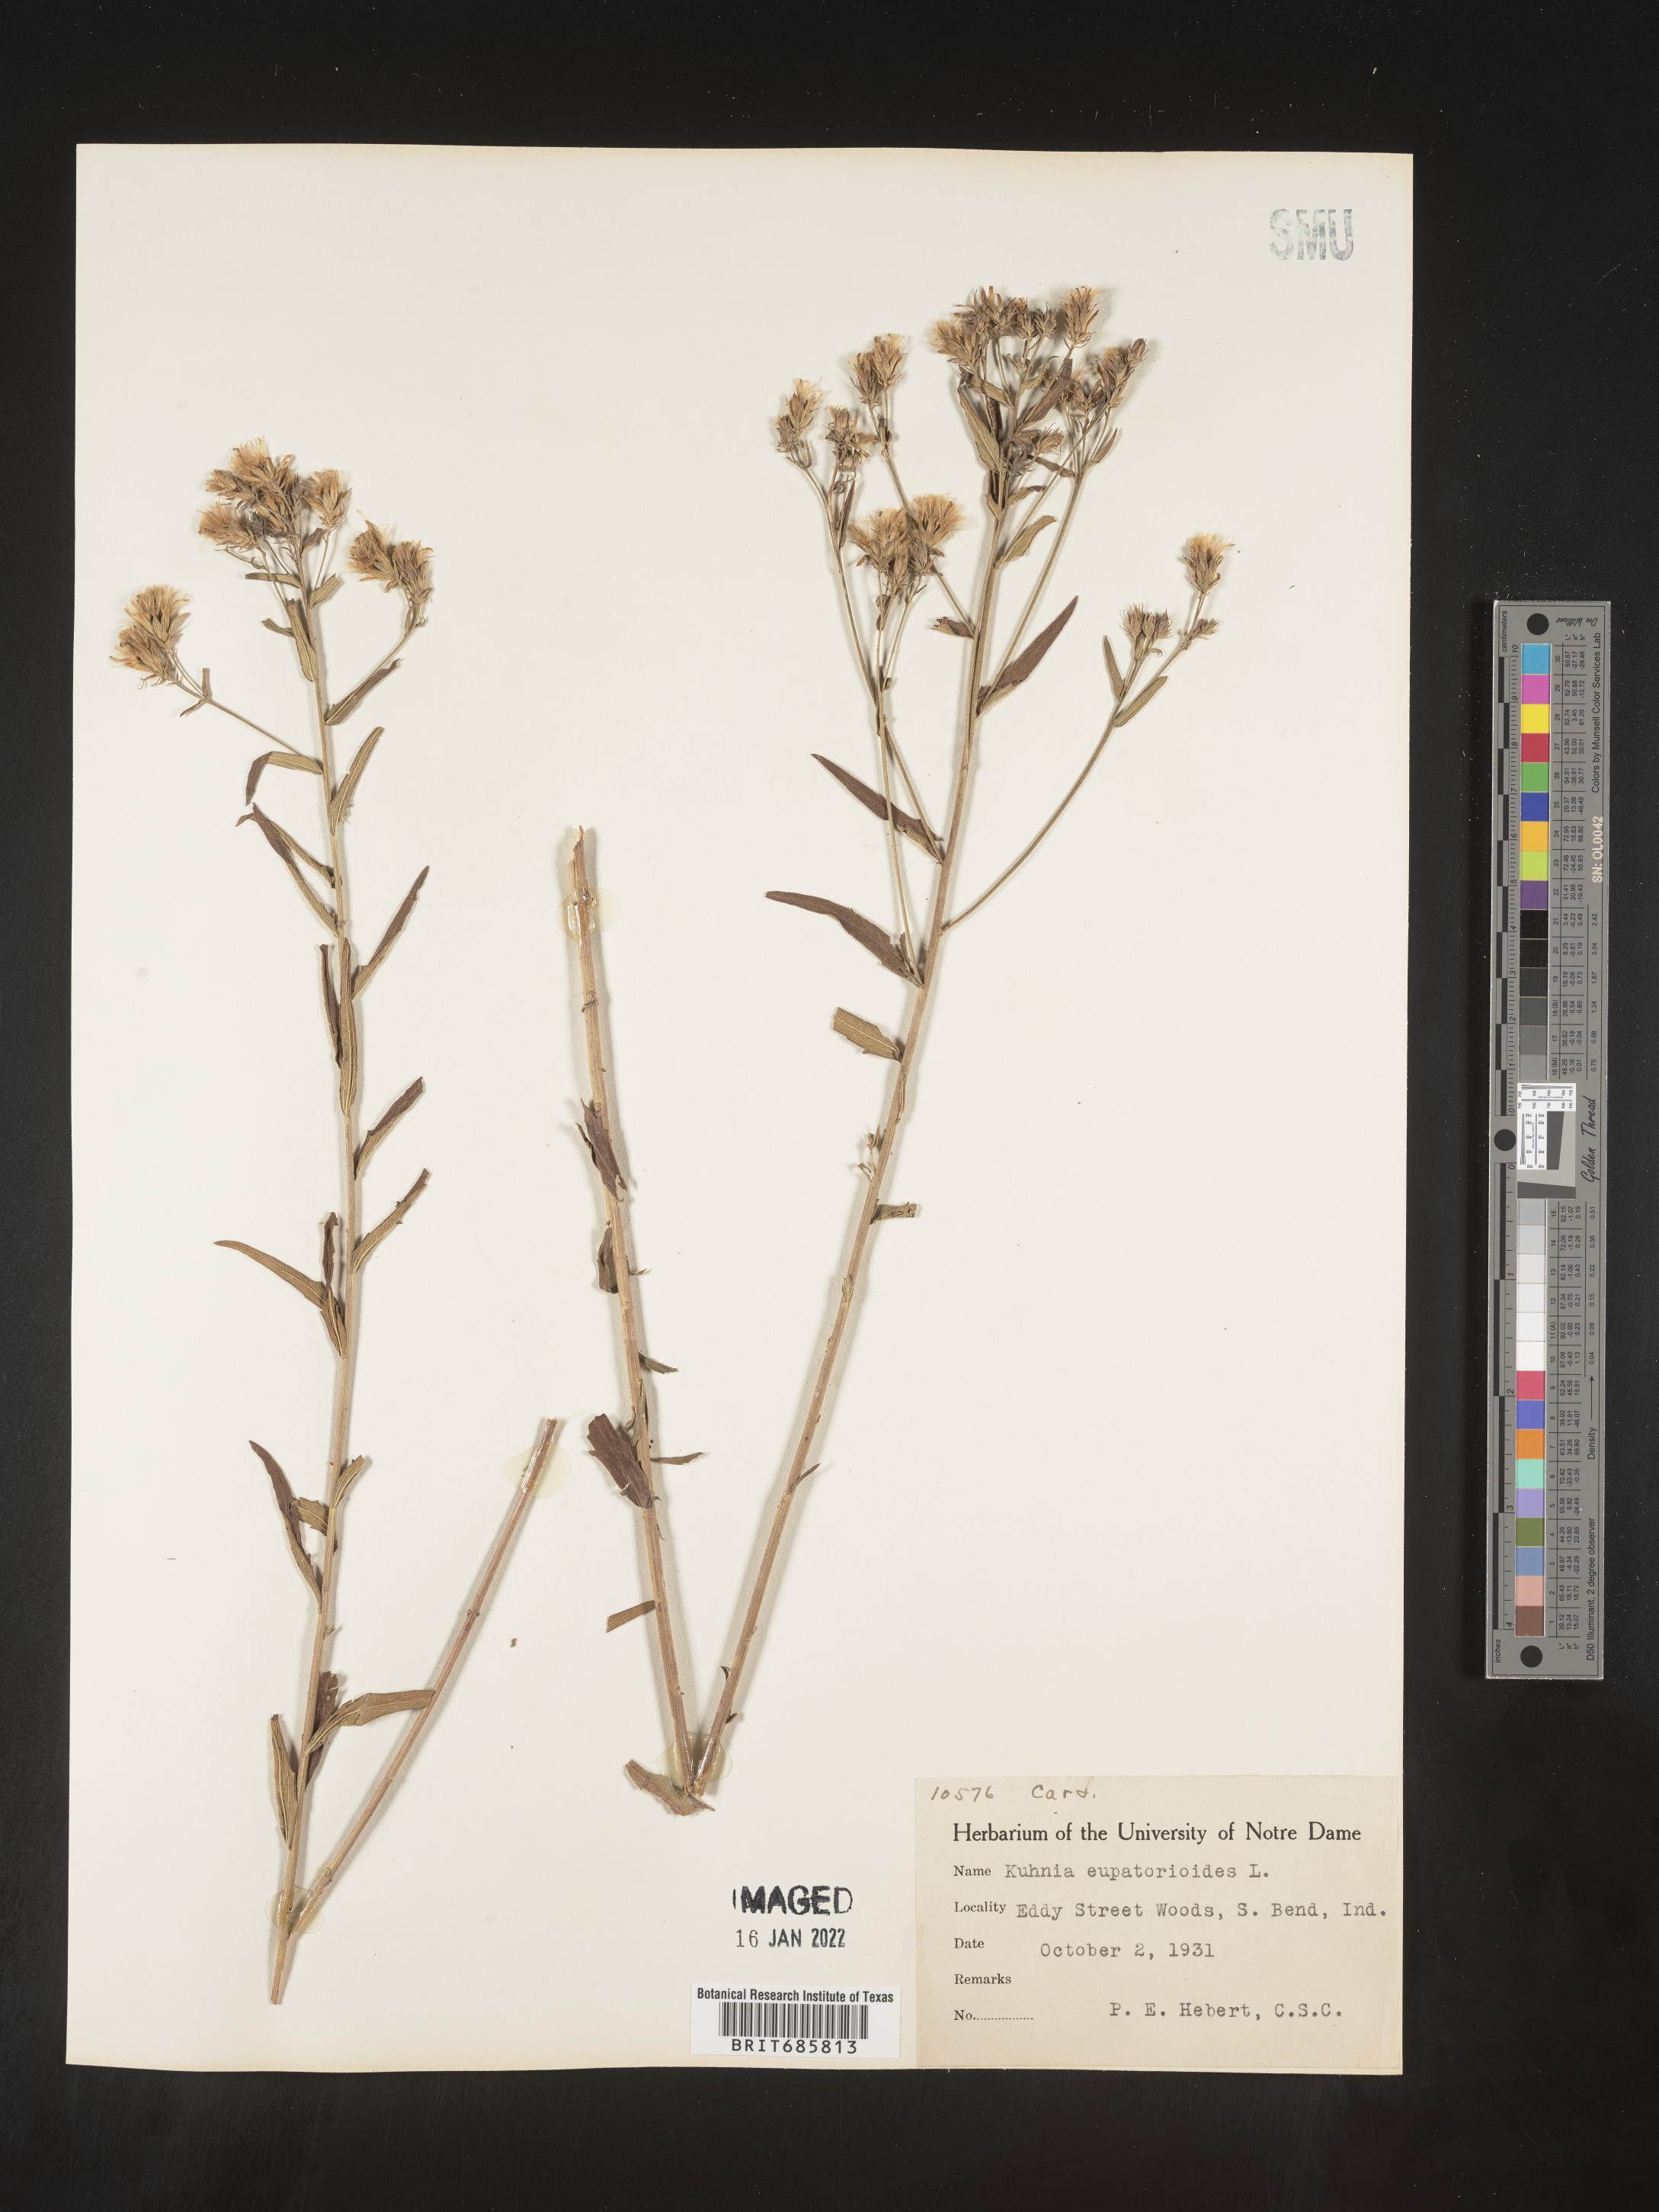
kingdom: Plantae
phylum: Tracheophyta
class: Magnoliopsida
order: Asterales
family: Asteraceae
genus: Brickellia
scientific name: Brickellia eupatorioides
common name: False boneset
